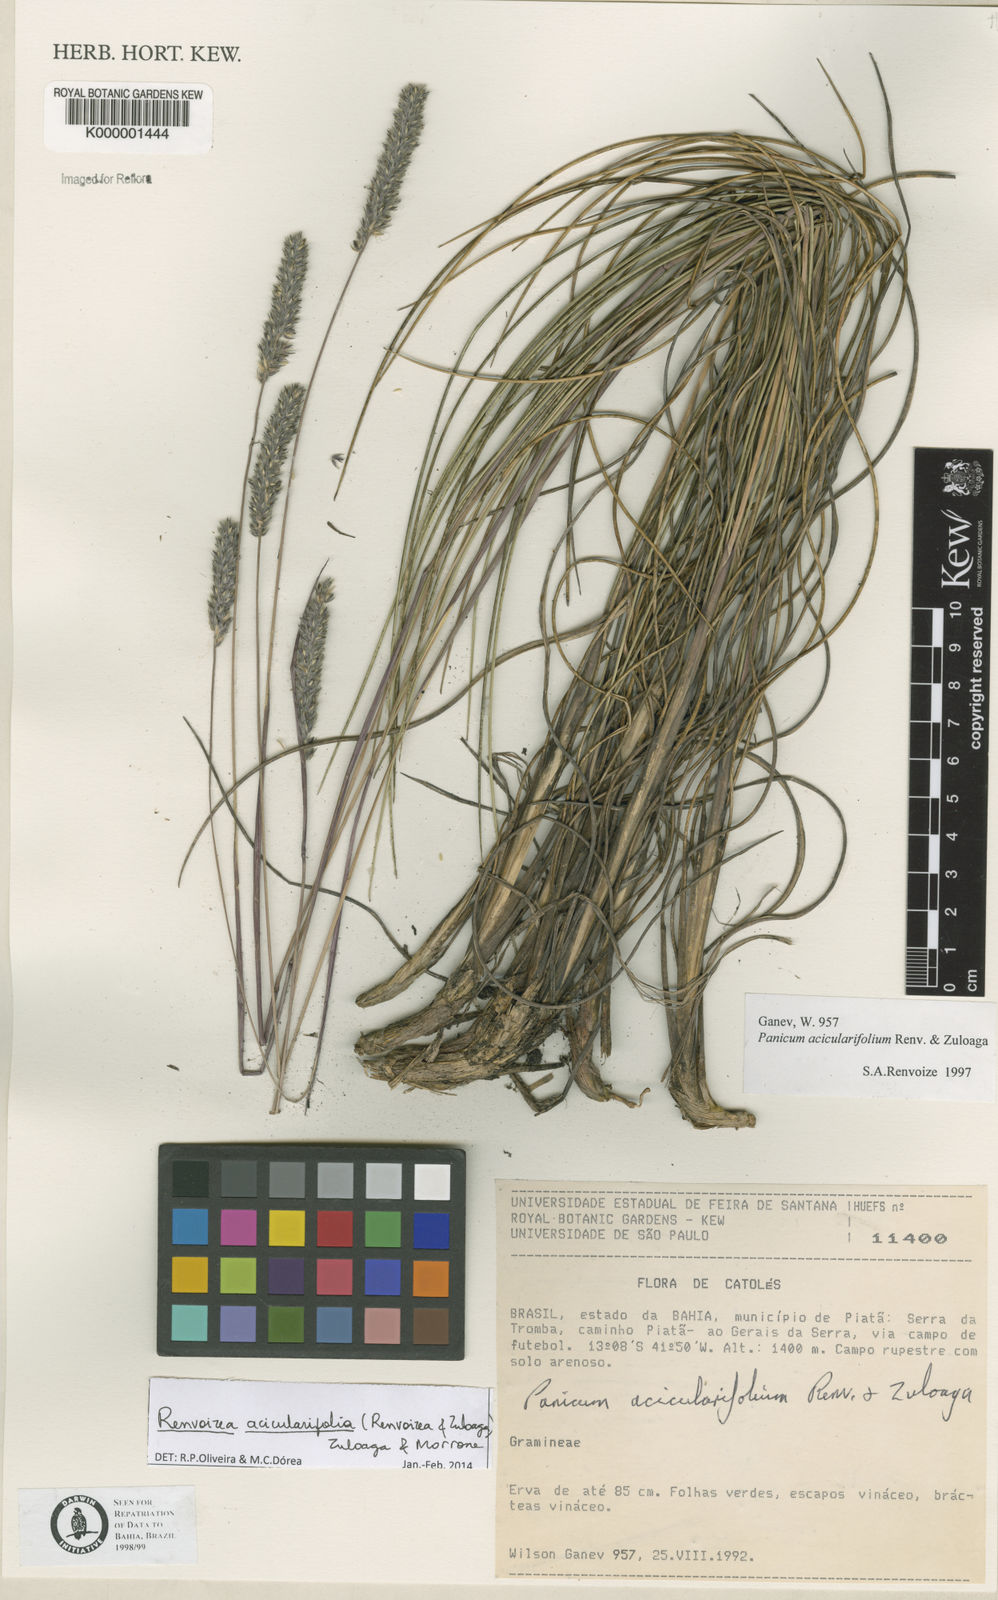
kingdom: Plantae
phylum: Tracheophyta
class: Liliopsida
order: Poales
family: Poaceae
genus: Renvoizea
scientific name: Renvoizea acicularifolia
